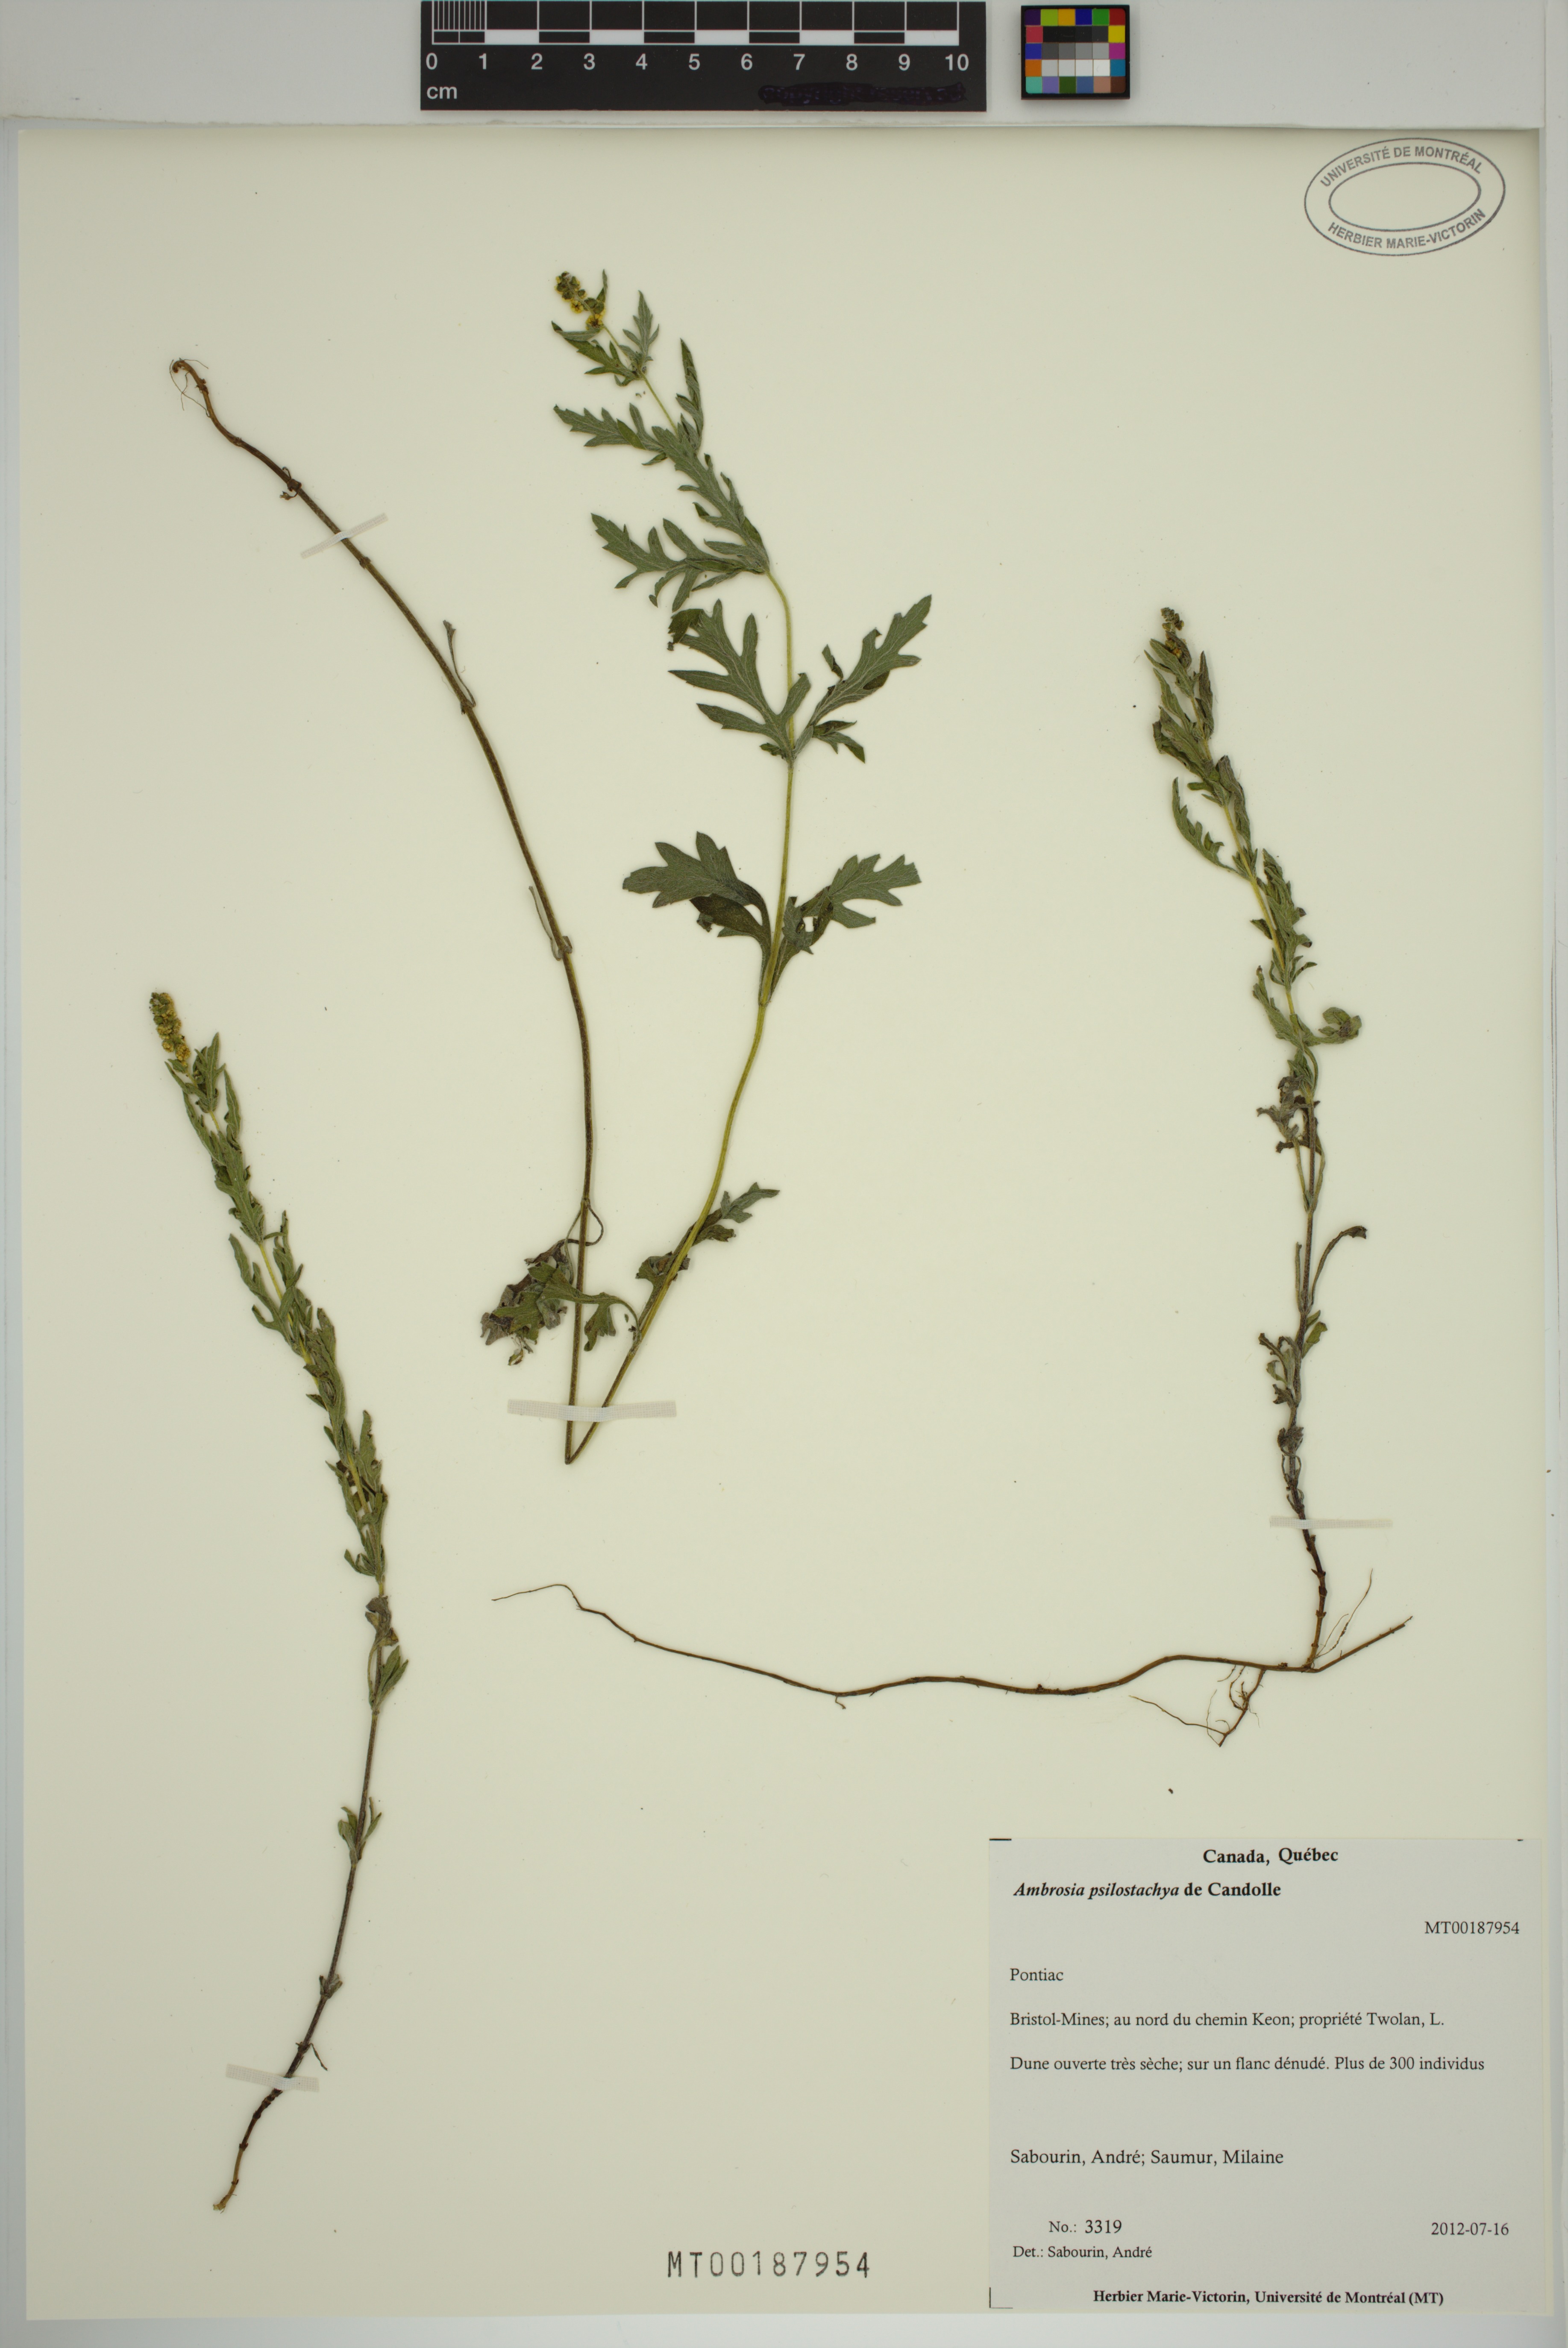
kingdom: Plantae
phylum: Tracheophyta
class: Magnoliopsida
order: Asterales
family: Asteraceae
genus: Ambrosia
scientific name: Ambrosia psilostachya
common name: Perennial ragweed
